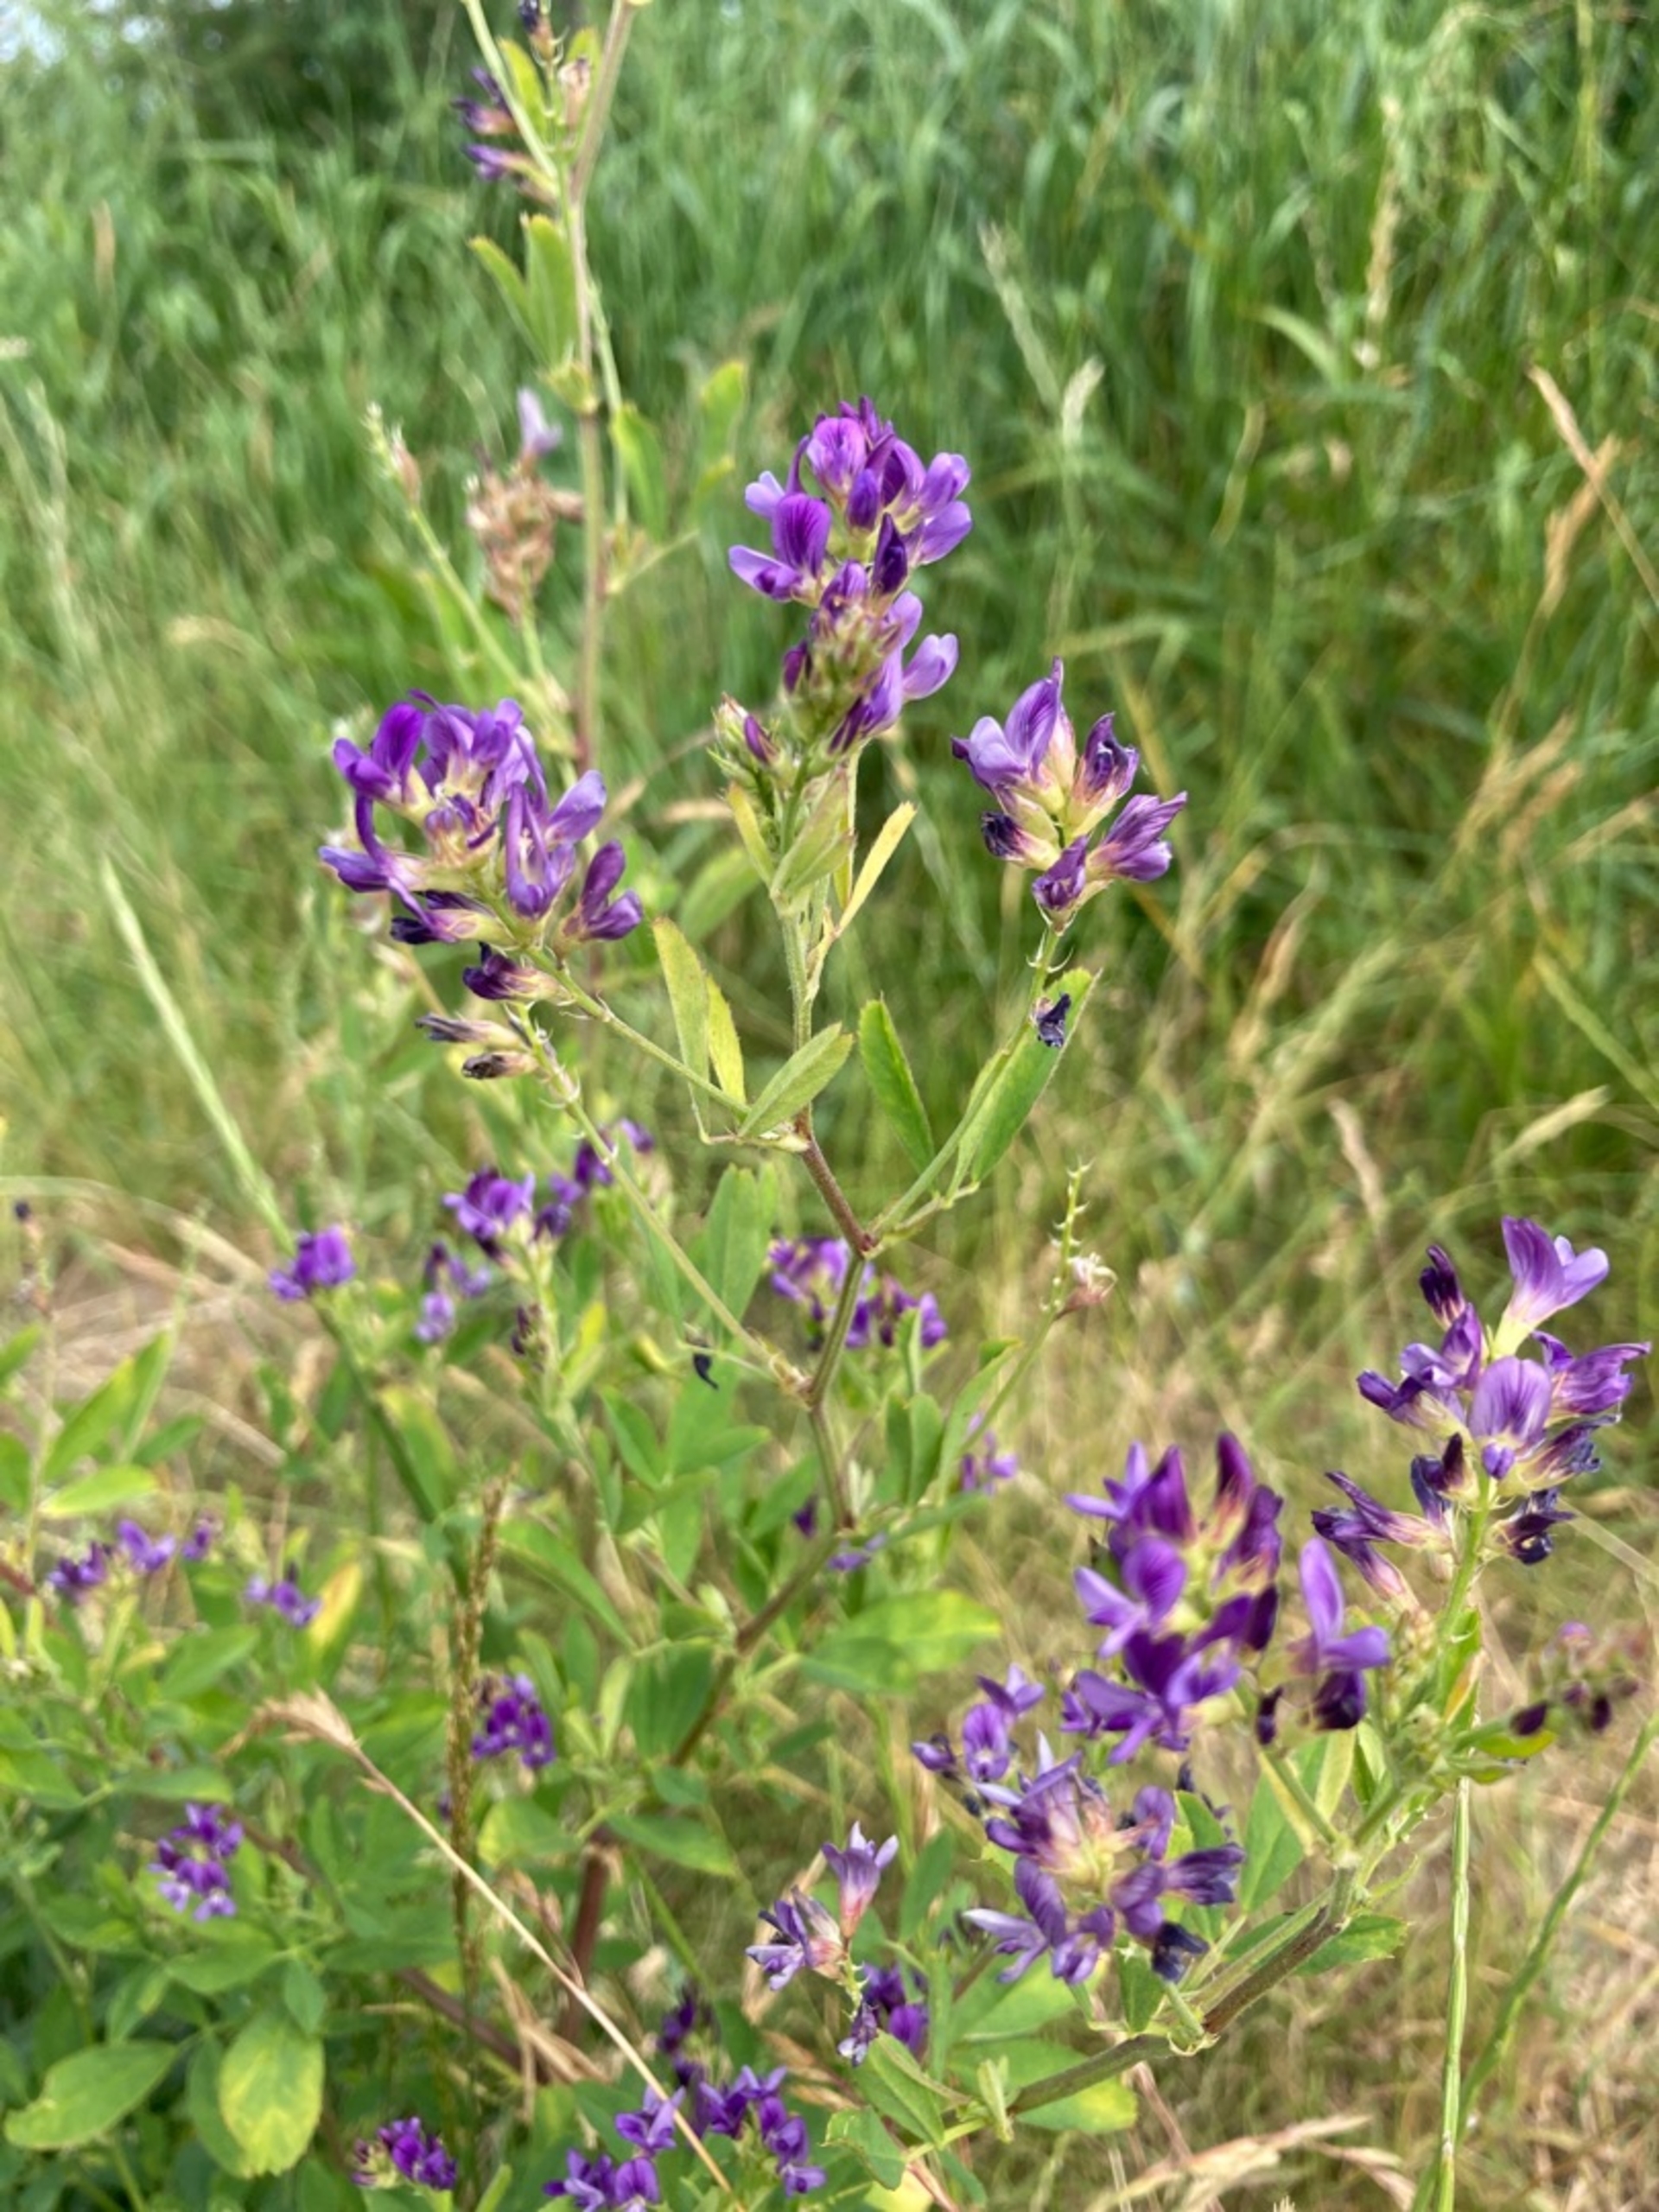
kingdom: Plantae
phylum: Tracheophyta
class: Magnoliopsida
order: Fabales
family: Fabaceae
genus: Medicago
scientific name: Medicago sativa
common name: Lucerne
